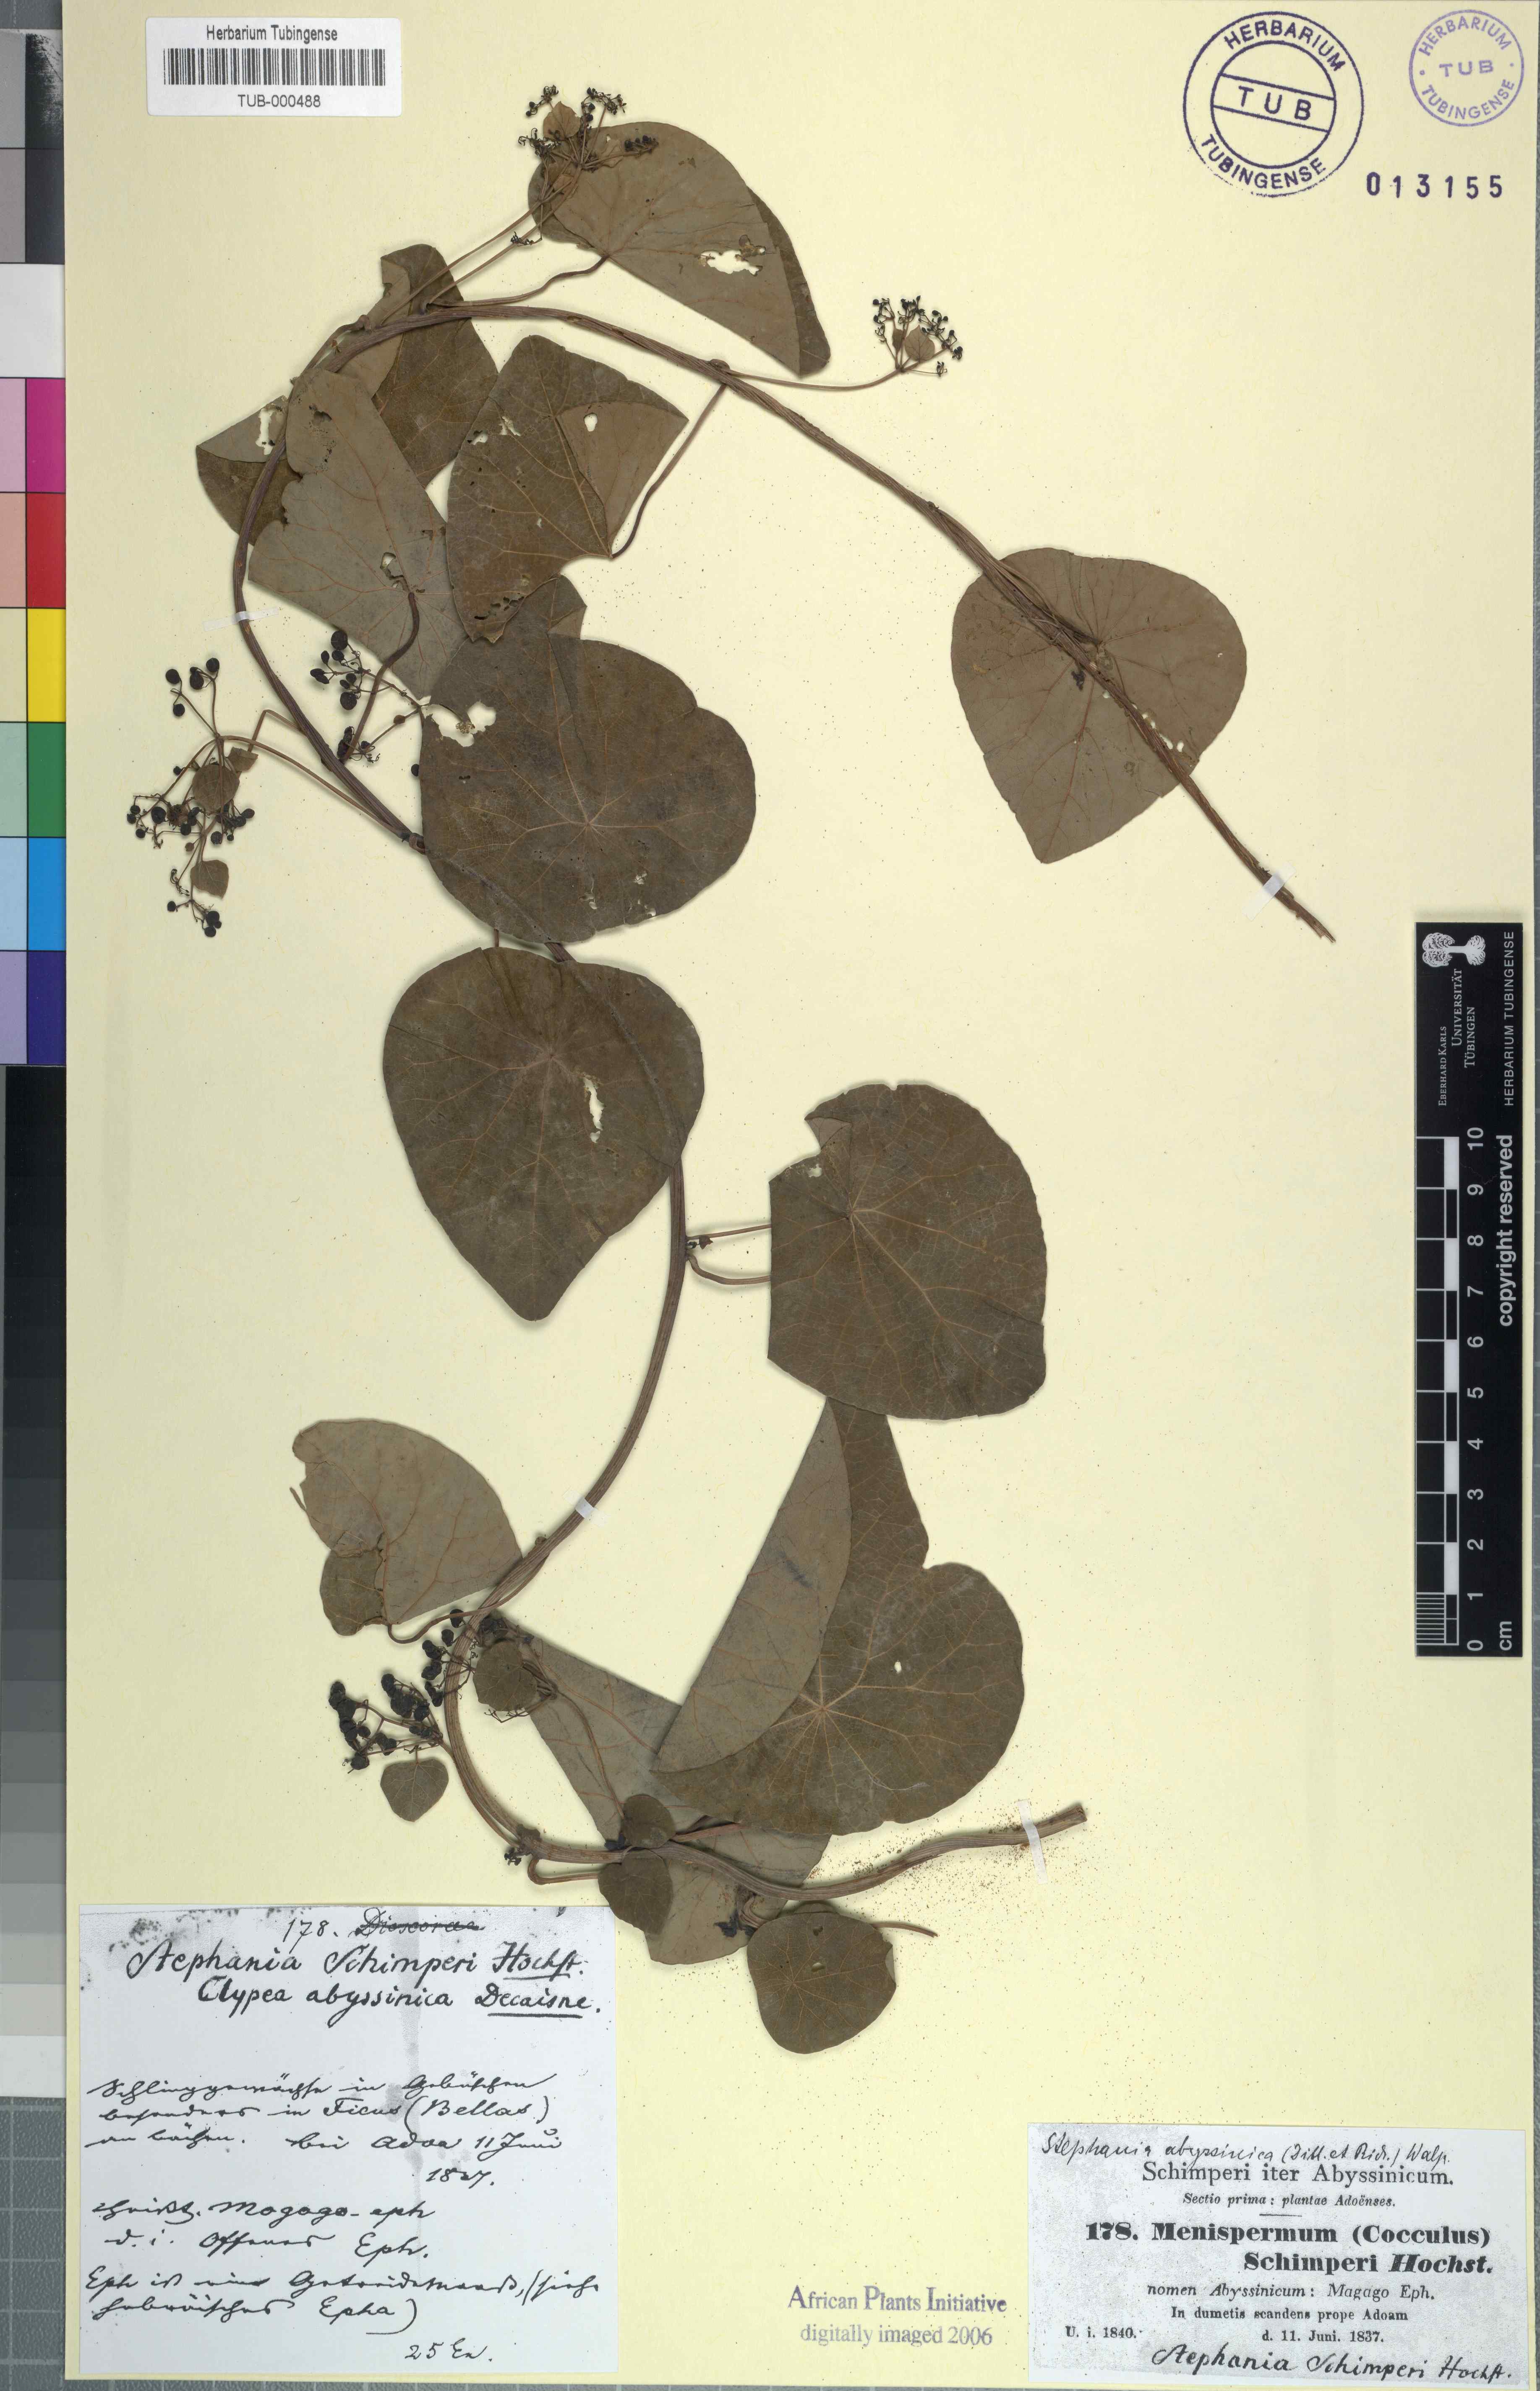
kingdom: Plantae
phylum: Tracheophyta
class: Magnoliopsida
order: Ranunculales
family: Menispermaceae
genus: Stephania
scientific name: Stephania abyssinica
